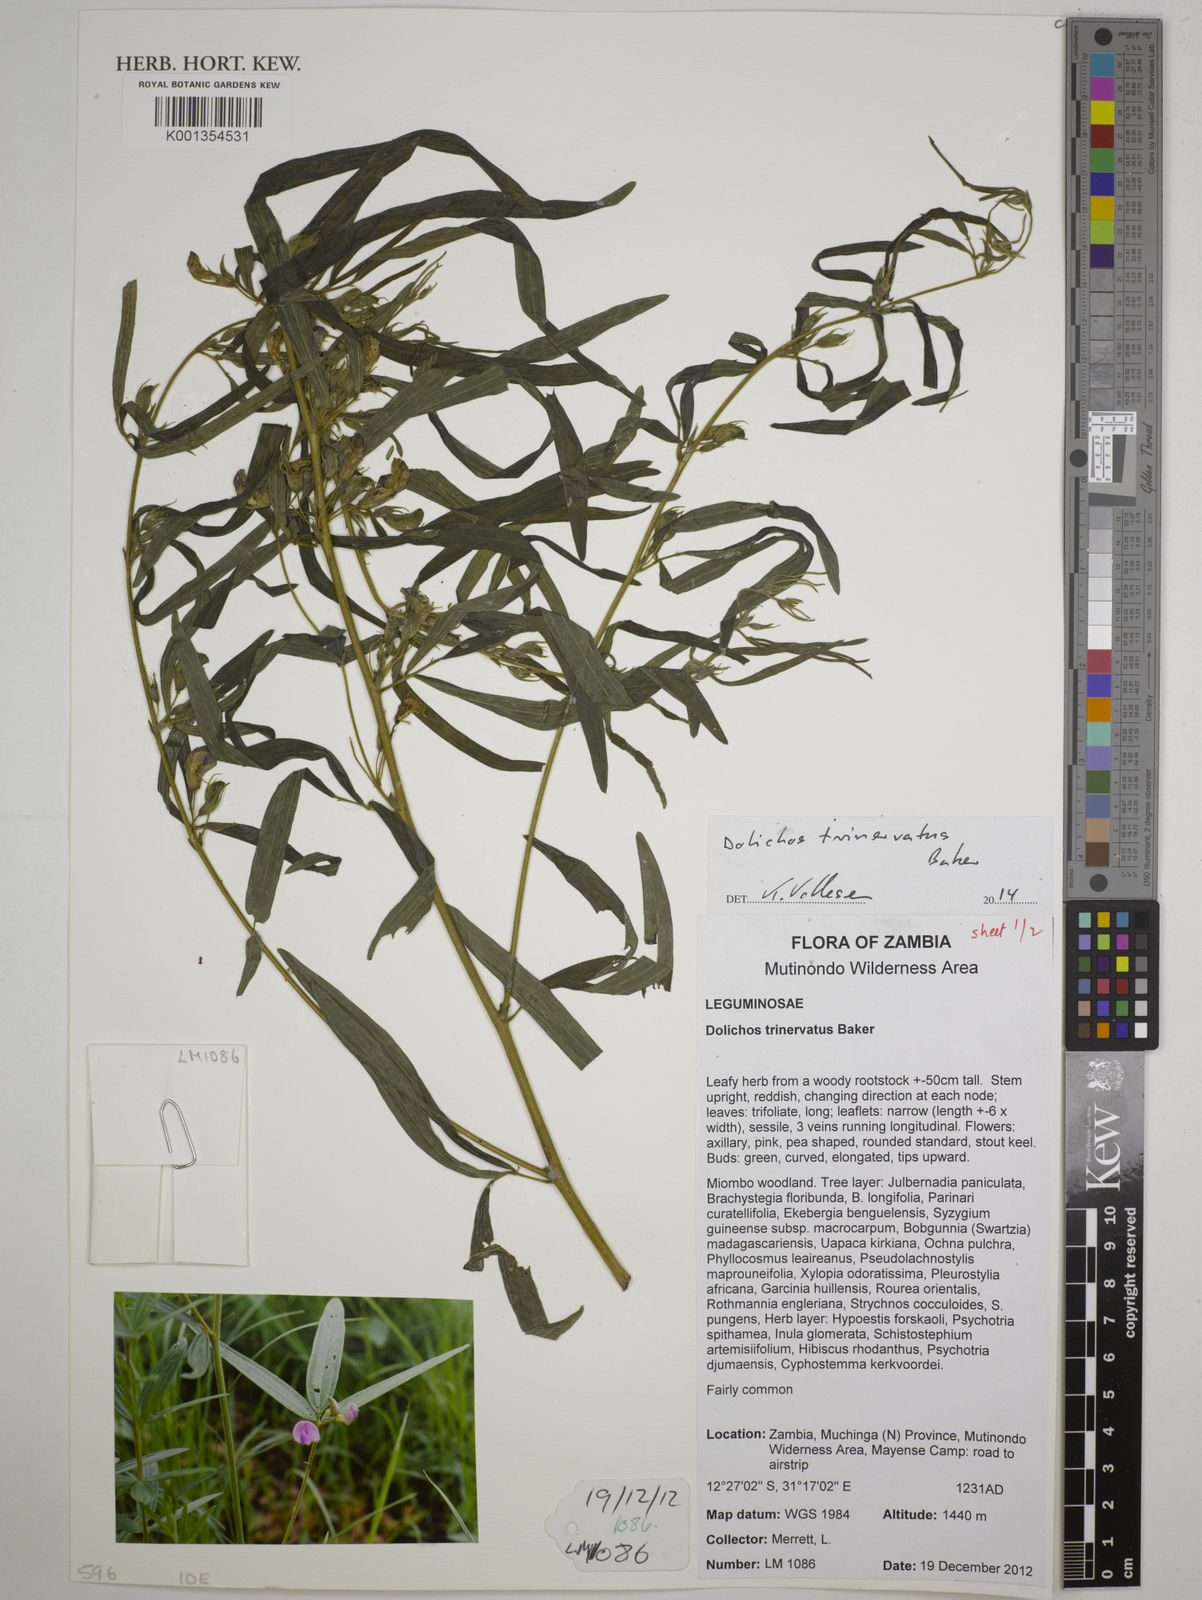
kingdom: Plantae
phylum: Tracheophyta
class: Magnoliopsida
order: Fabales
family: Fabaceae
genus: Dolichos
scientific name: Dolichos trinervatus
